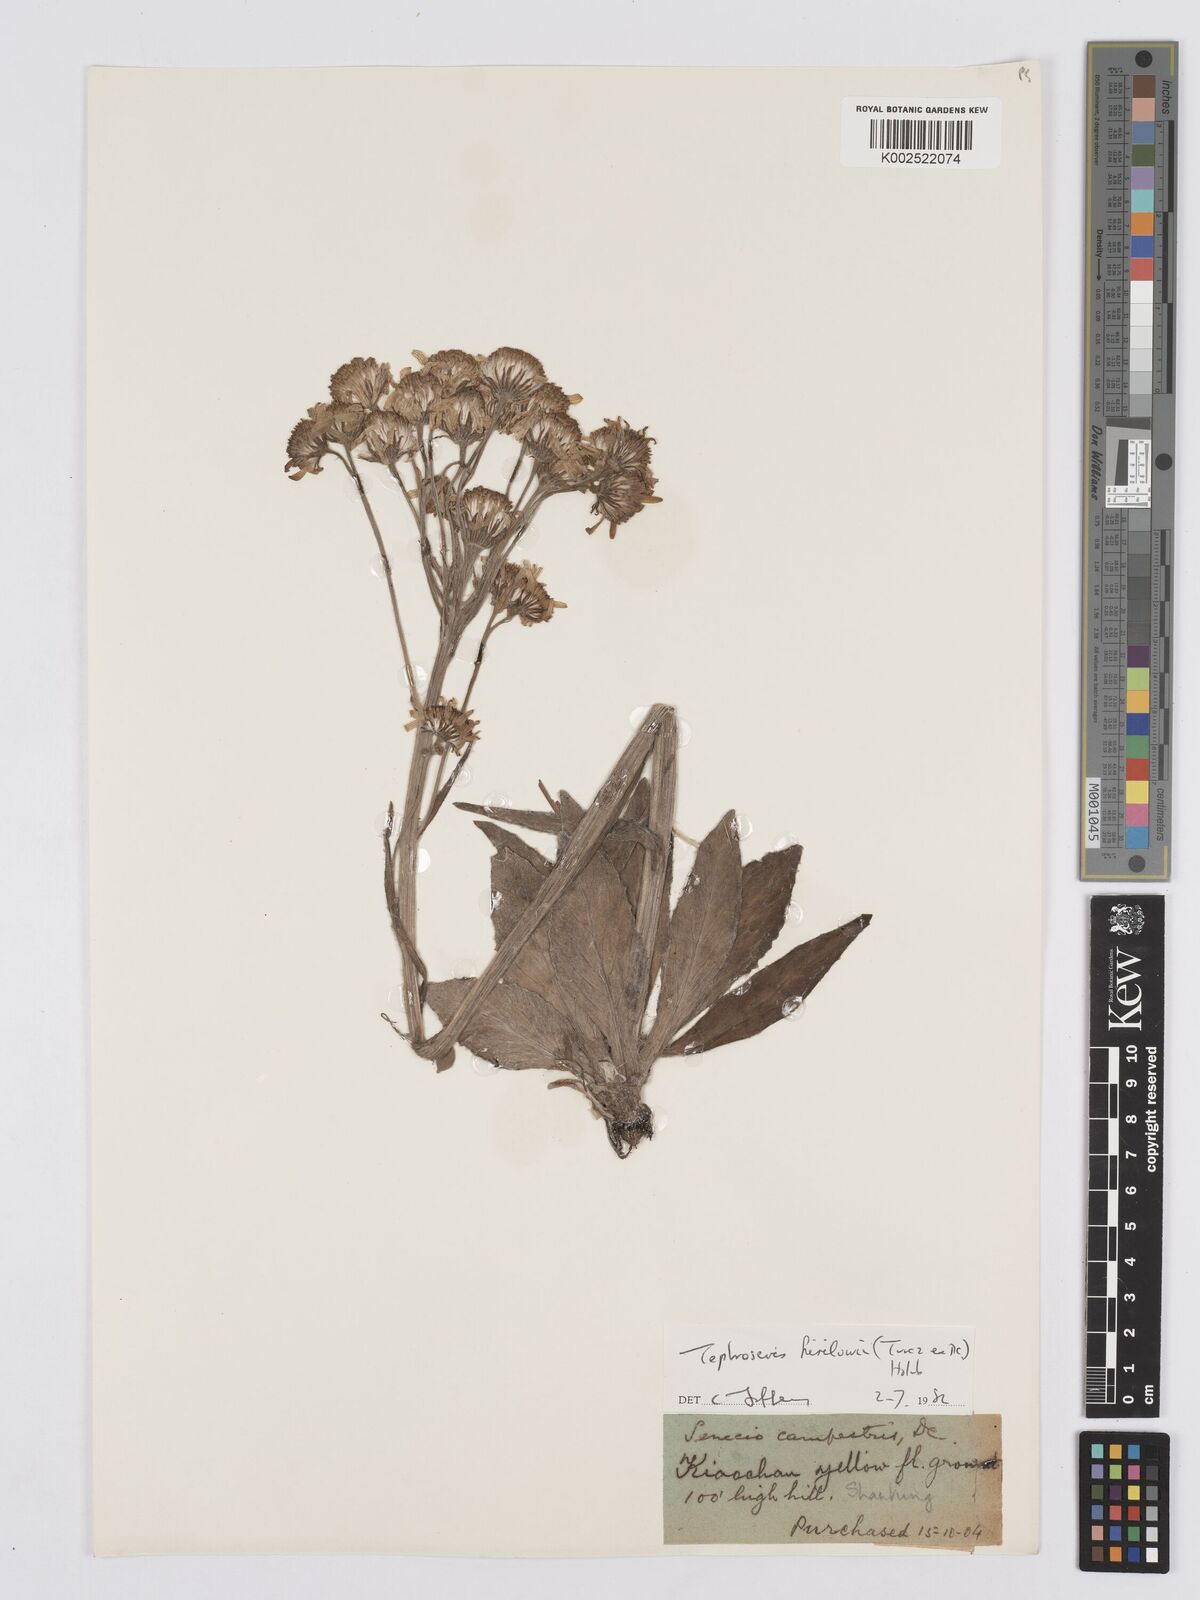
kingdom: Plantae
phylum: Tracheophyta
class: Magnoliopsida
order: Asterales
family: Asteraceae
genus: Tephroseris
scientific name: Tephroseris kirilowii
